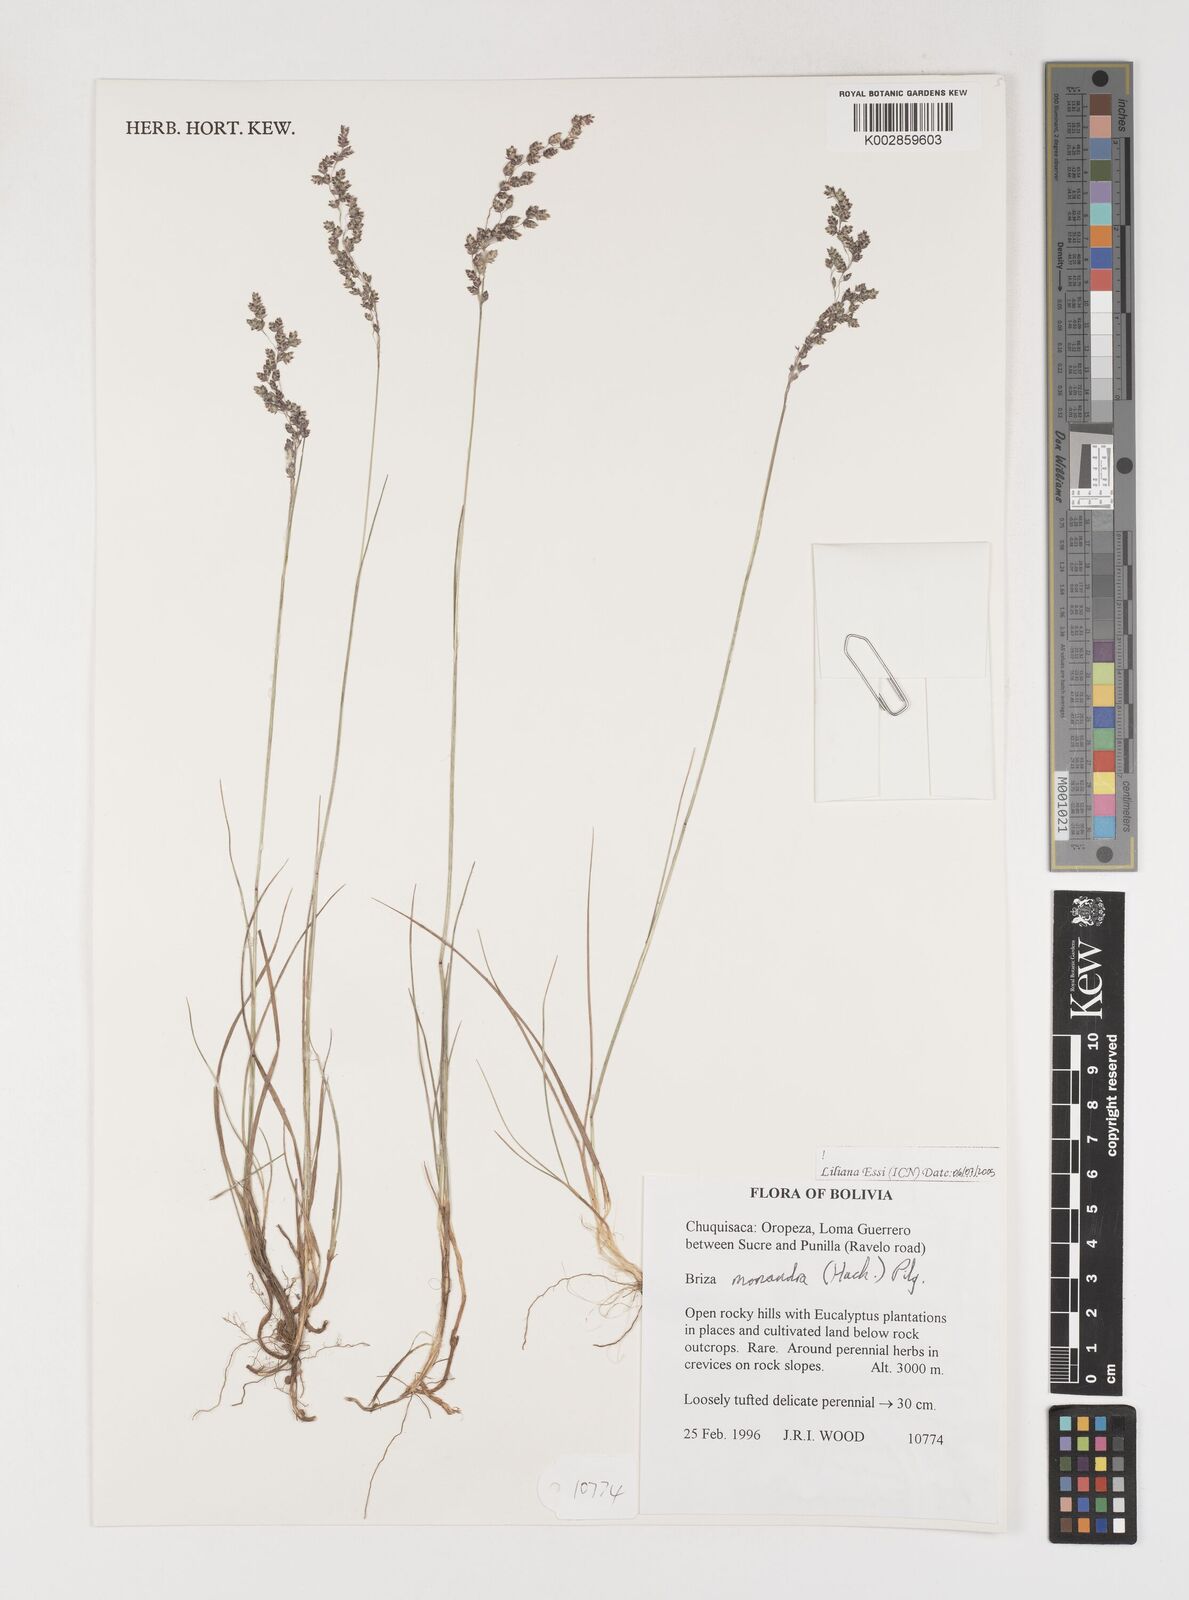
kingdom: Plantae
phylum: Tracheophyta
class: Liliopsida
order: Poales
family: Poaceae
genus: Poidium
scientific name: Poidium monandrum
